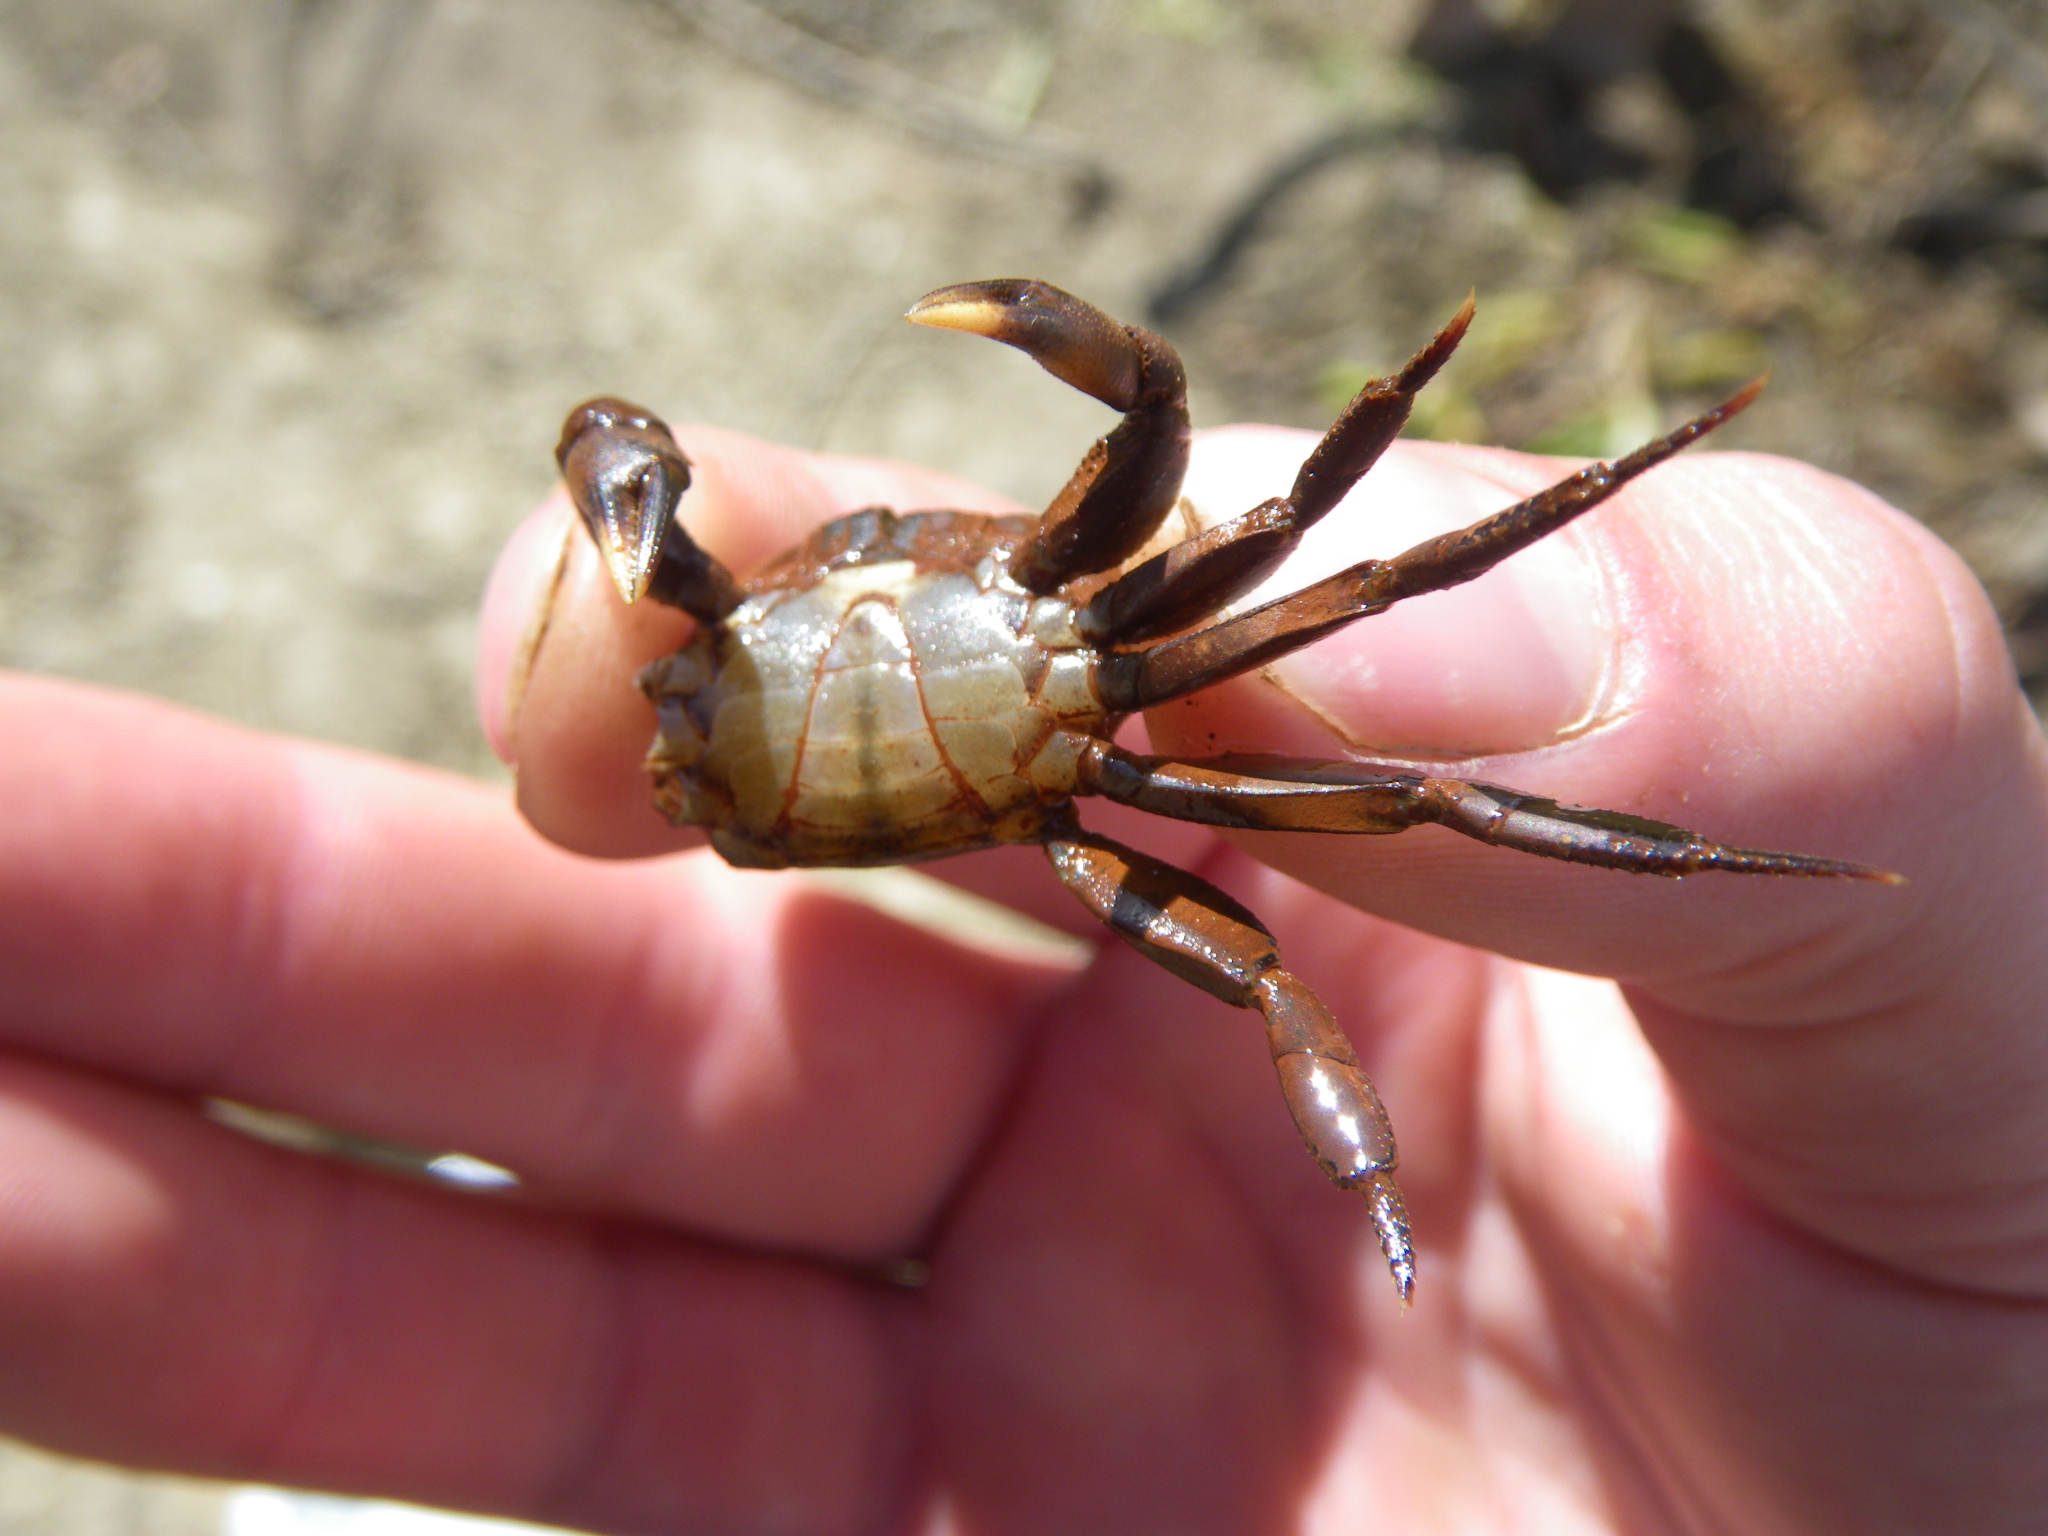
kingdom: Animalia
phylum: Arthropoda
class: Malacostraca
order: Decapoda
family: Potamonautidae
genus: Potamonautes
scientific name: Potamonautes
